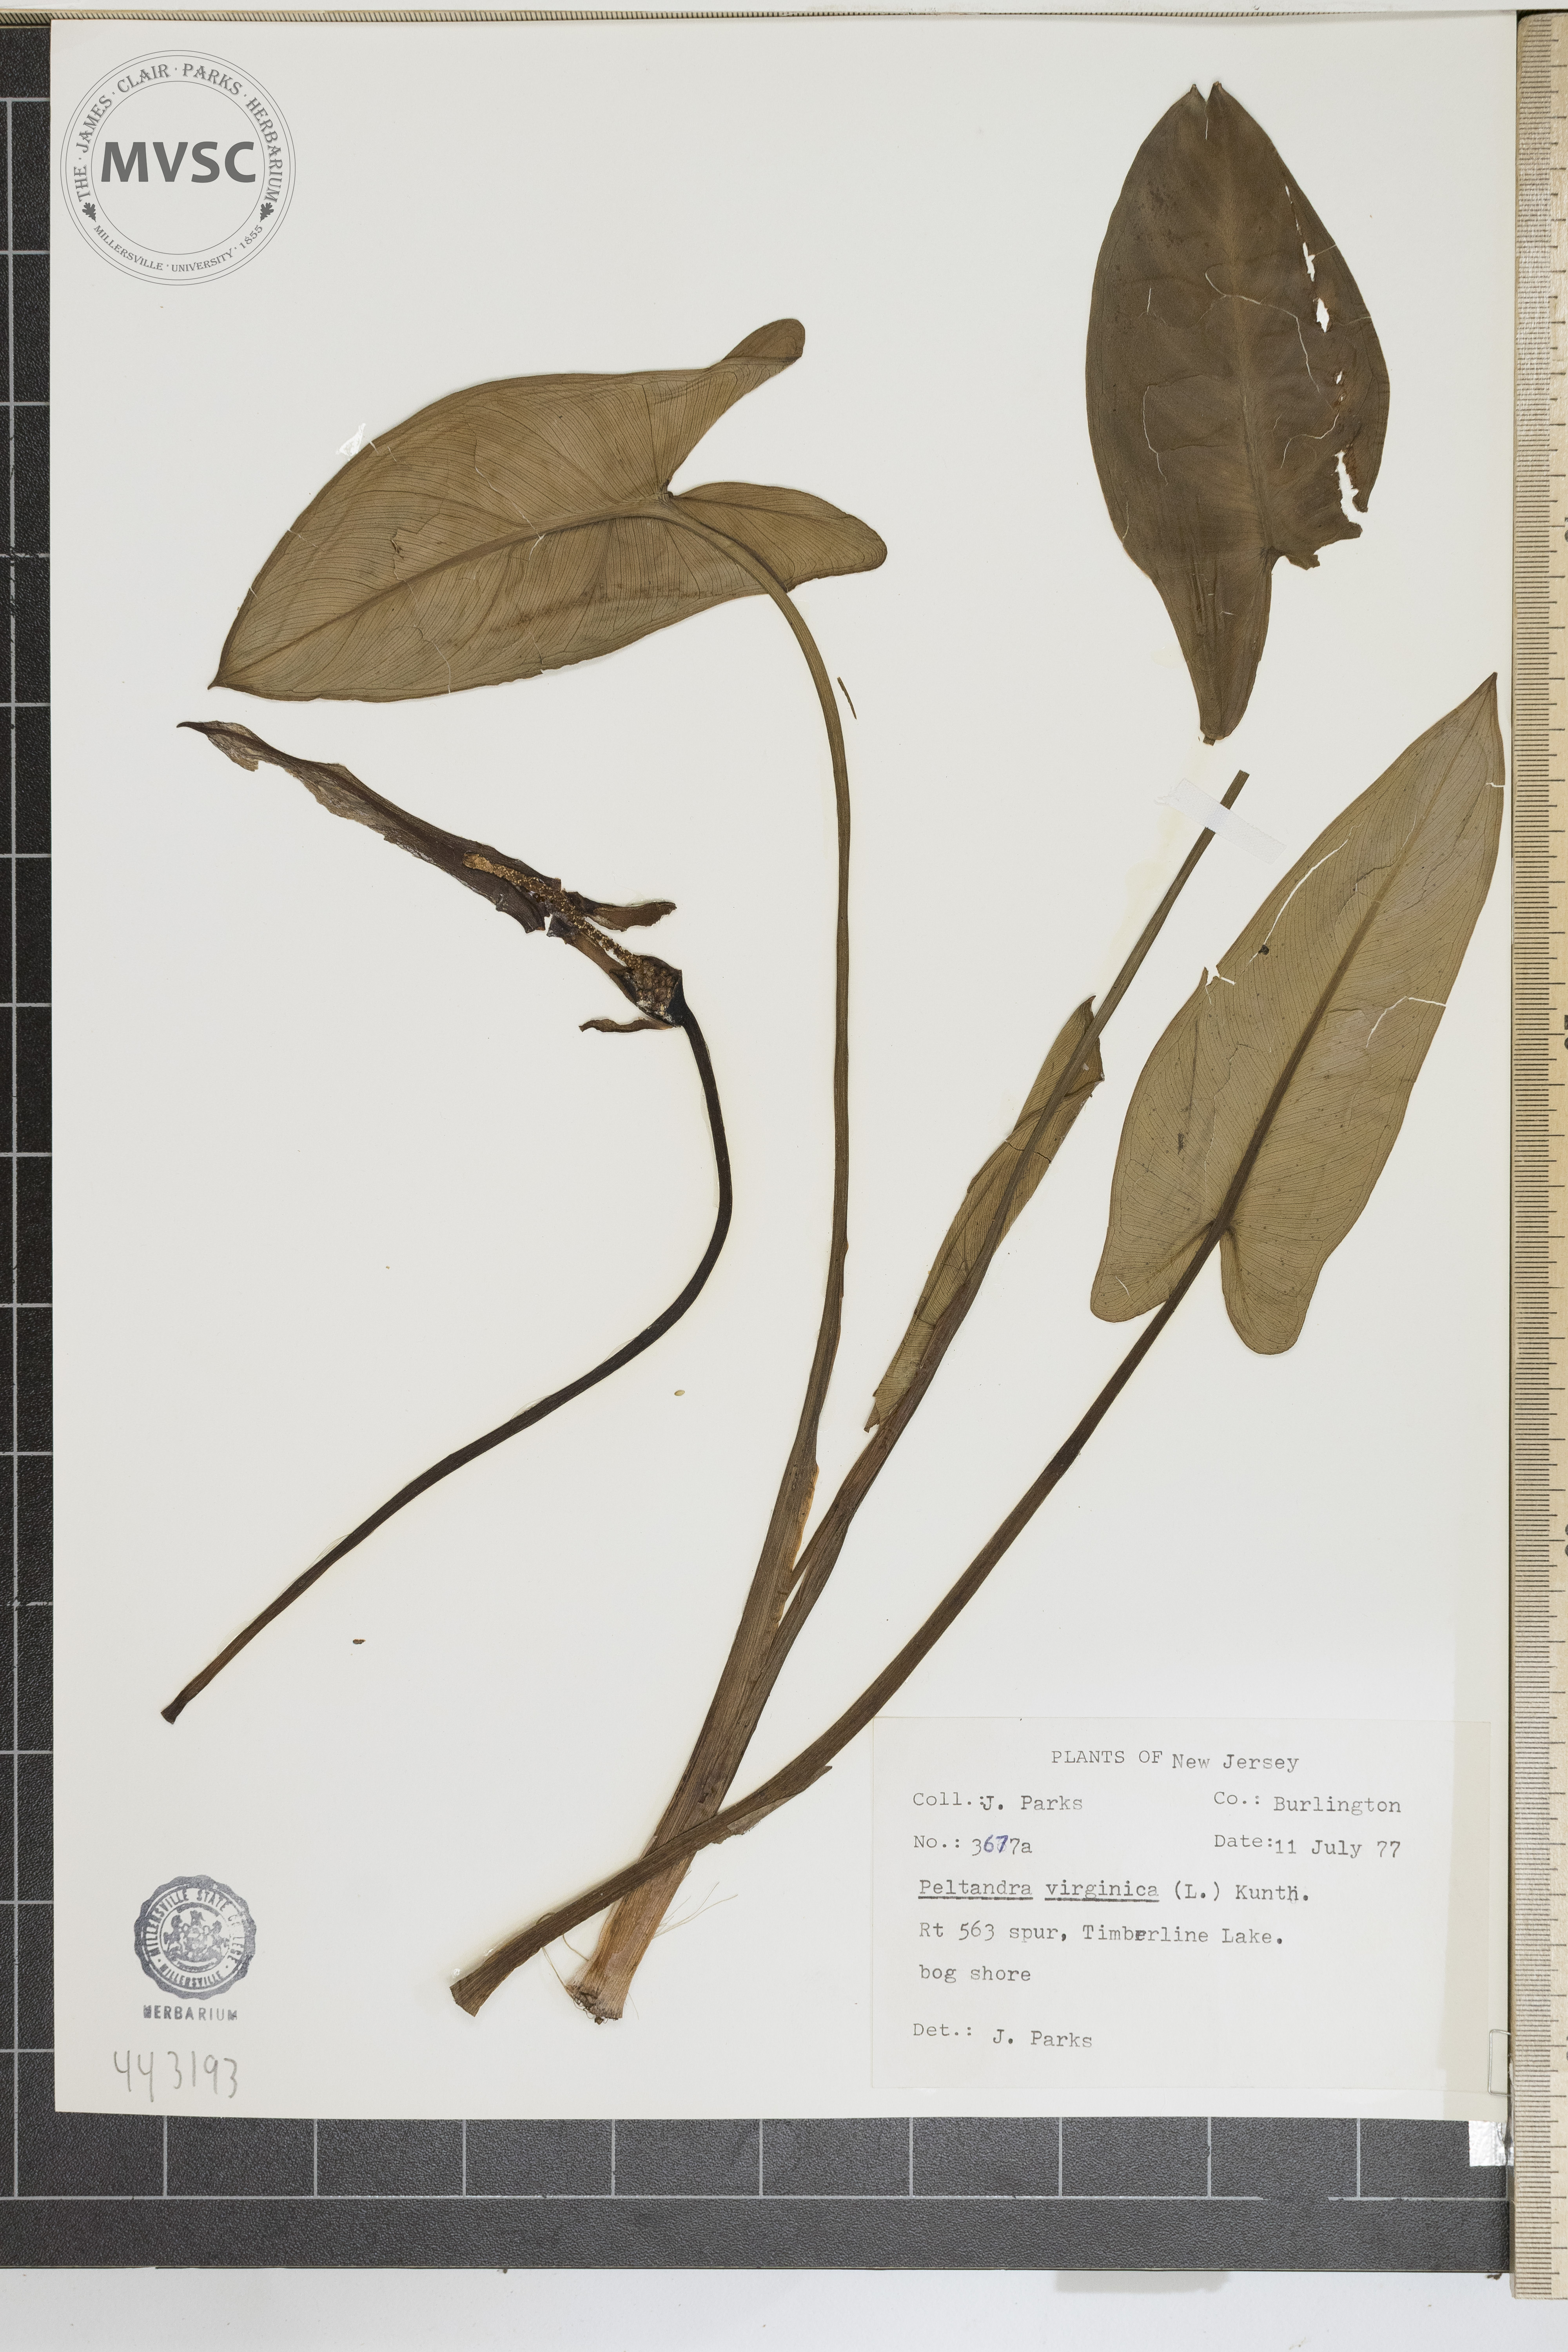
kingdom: Plantae
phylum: Tracheophyta
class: Liliopsida
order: Alismatales
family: Araceae
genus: Peltandra
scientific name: Peltandra virginica
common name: Arrow arum
